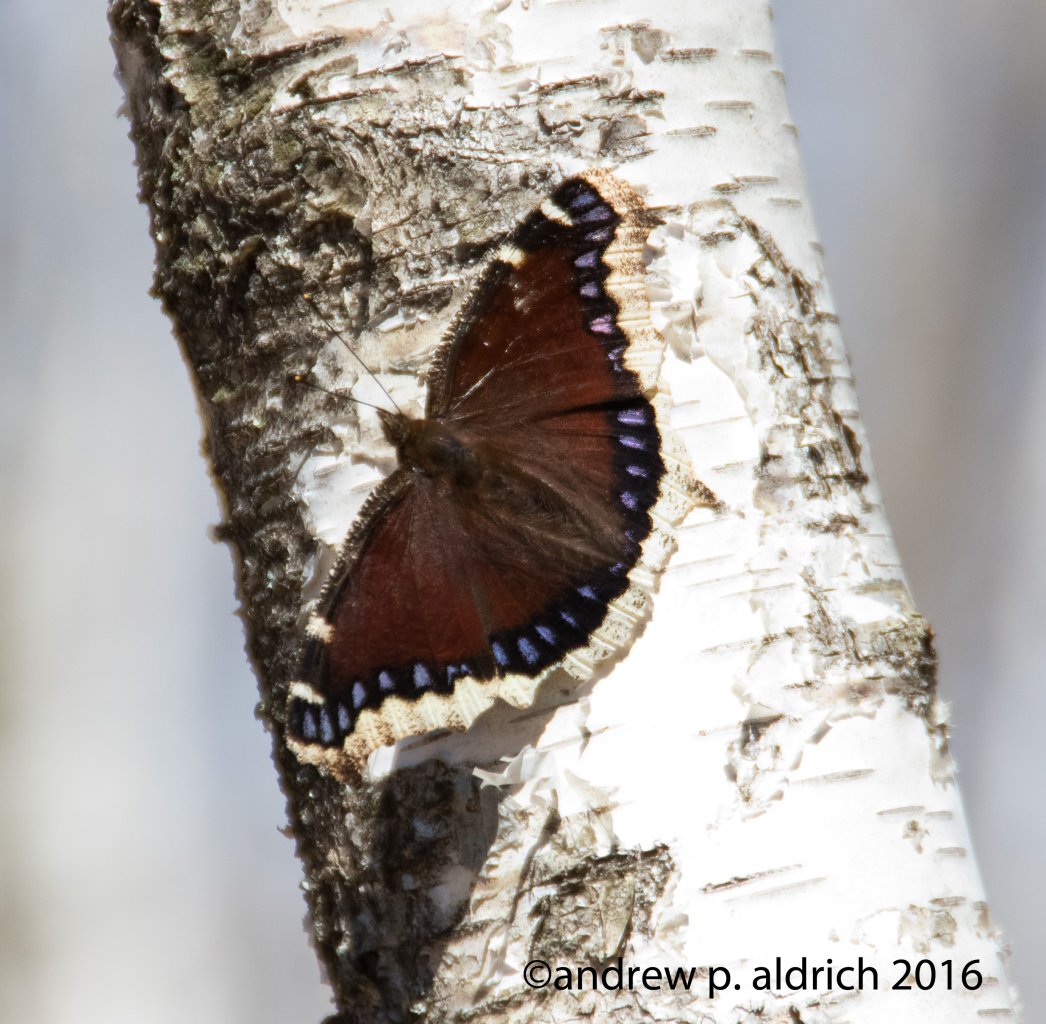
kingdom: Animalia
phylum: Arthropoda
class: Insecta
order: Lepidoptera
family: Nymphalidae
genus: Nymphalis
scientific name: Nymphalis antiopa
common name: Mourning Cloak
